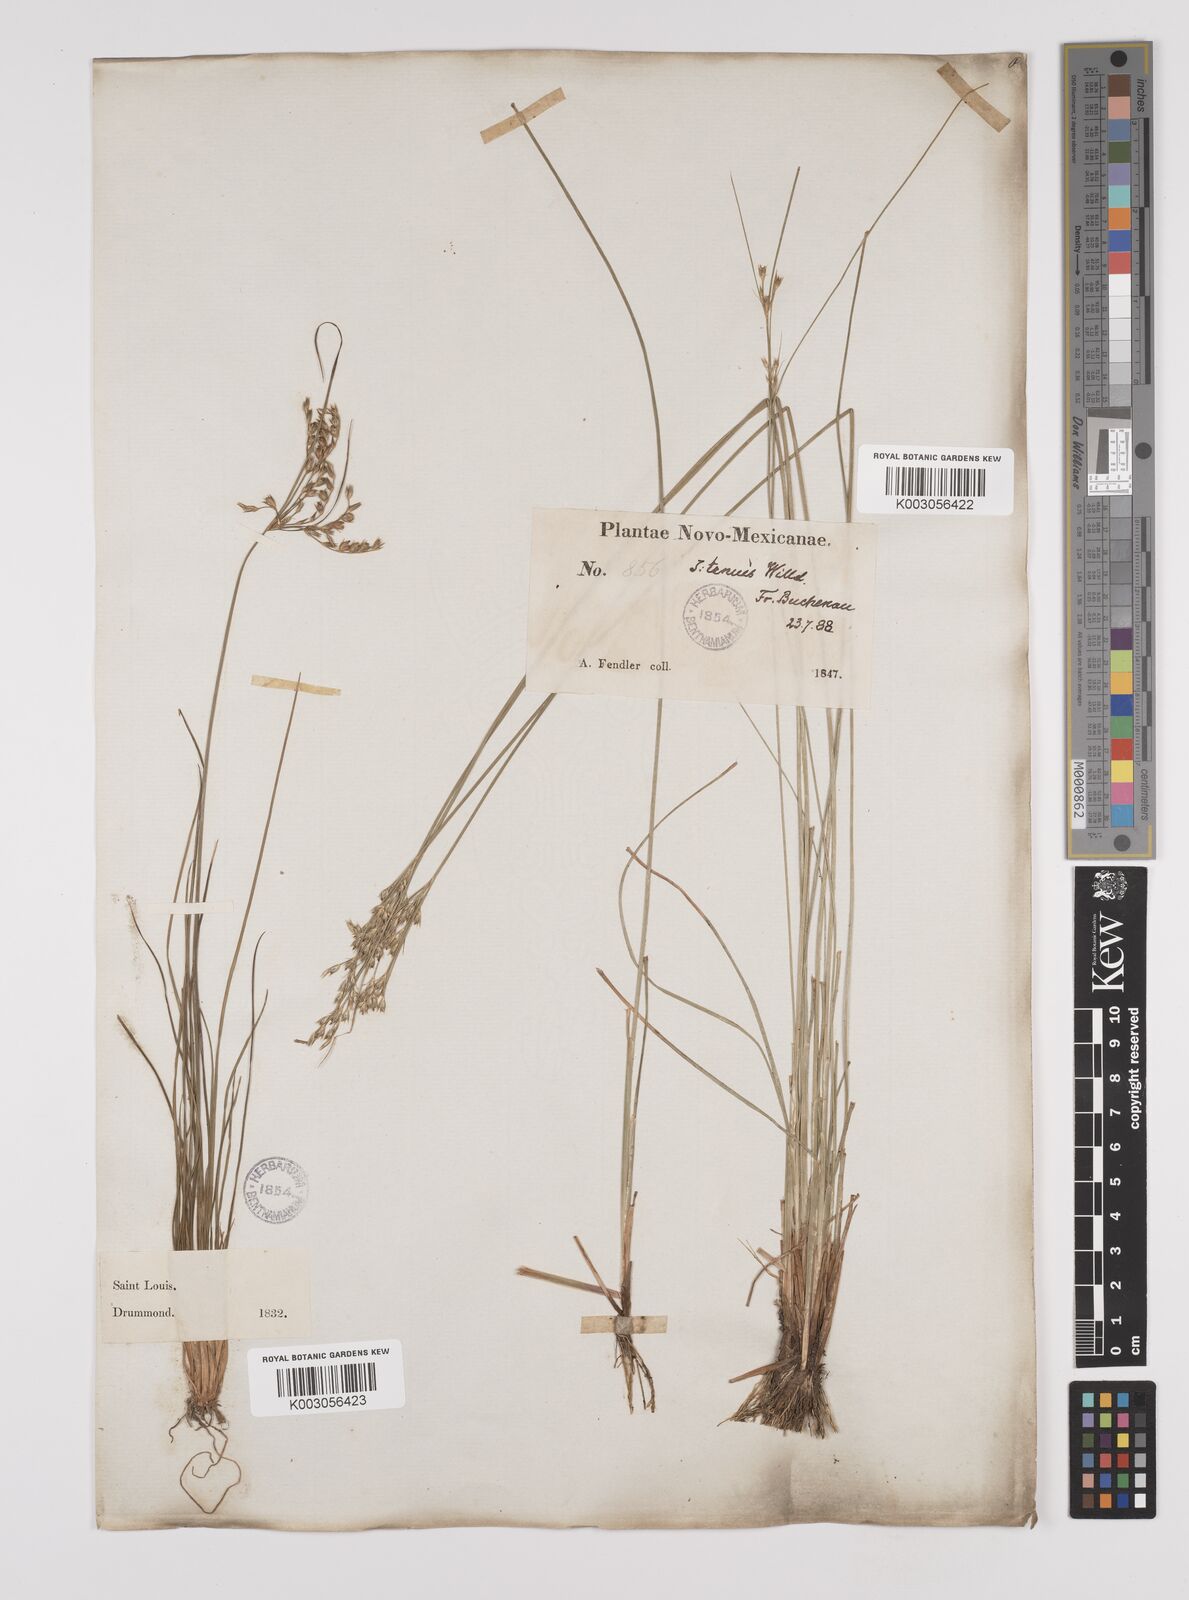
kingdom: Plantae
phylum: Tracheophyta
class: Liliopsida
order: Poales
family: Juncaceae
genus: Juncus
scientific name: Juncus tenuis
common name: Slender rush
